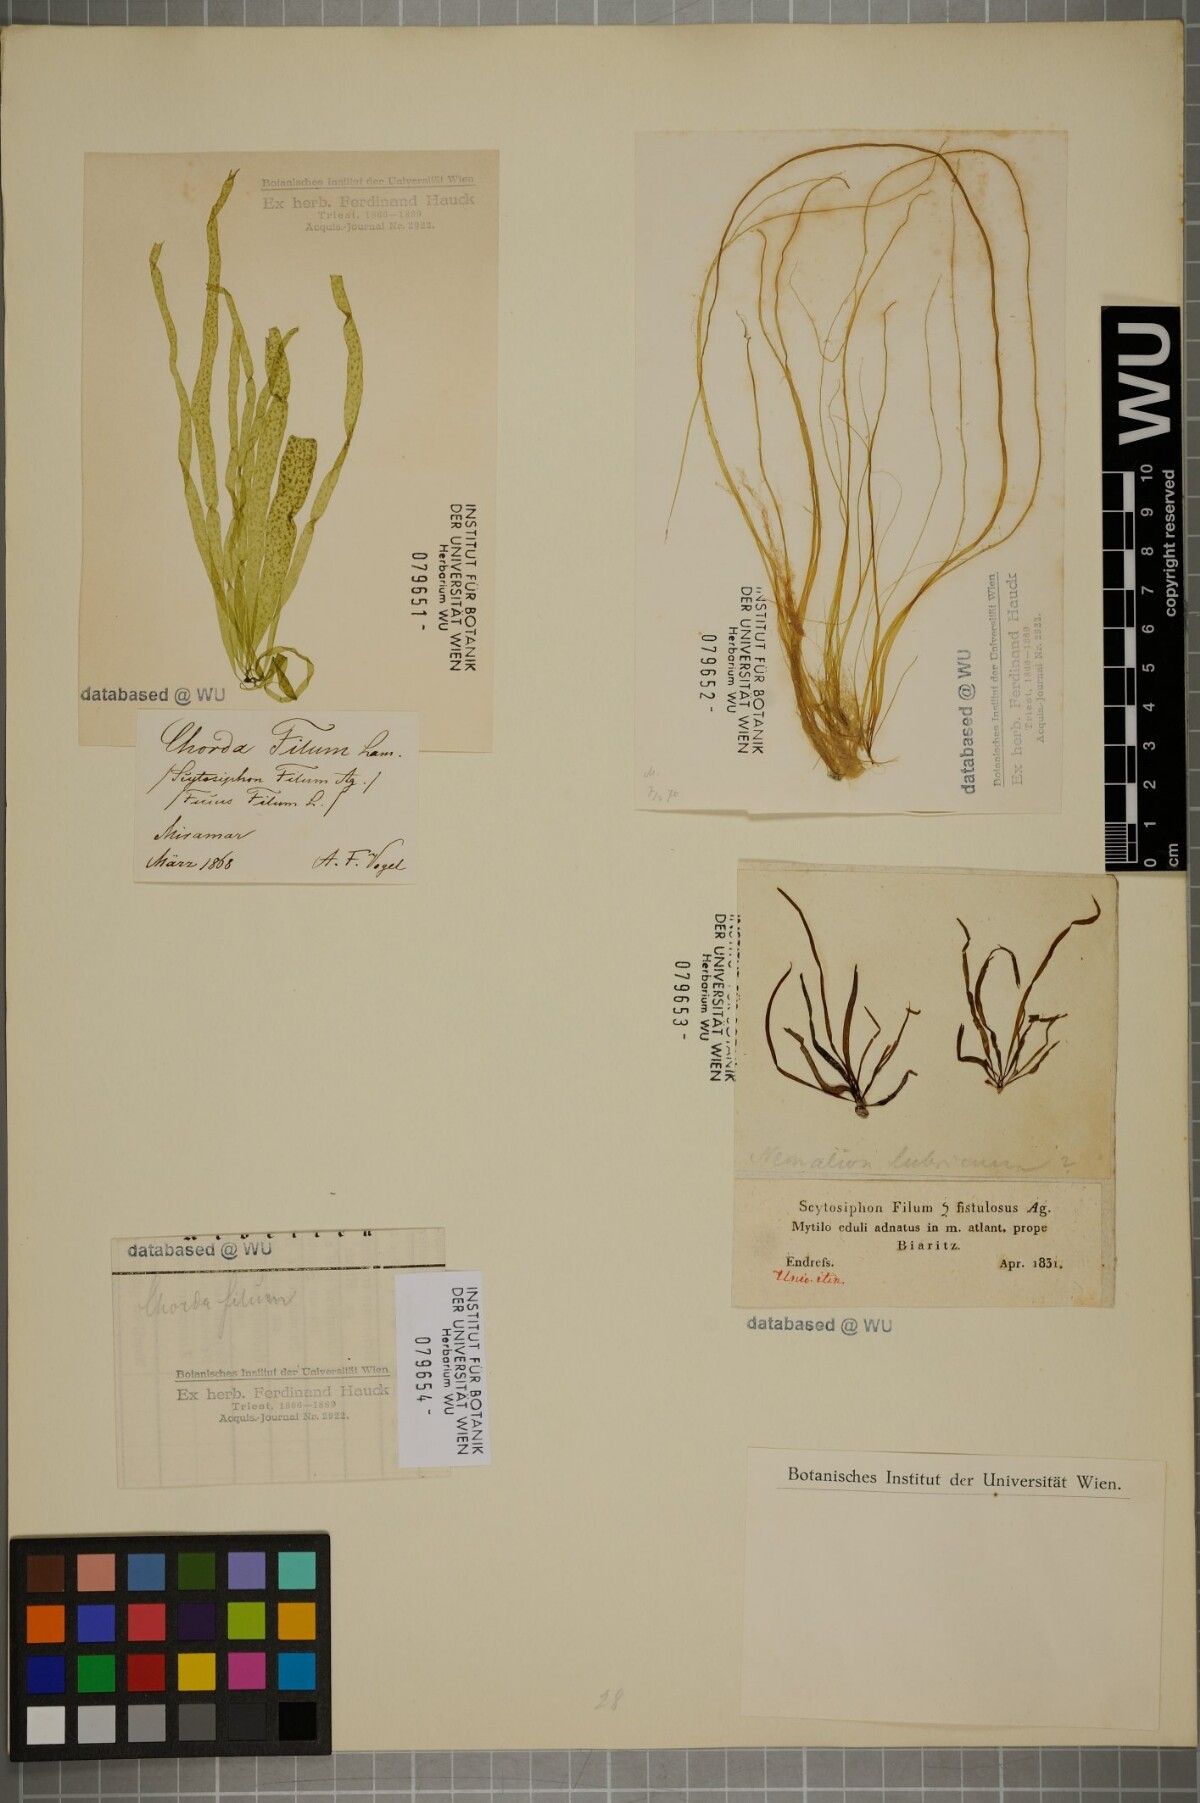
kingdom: Chromista
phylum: Ochrophyta
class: Phaeophyceae
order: Laminariales
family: Chordaceae
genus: Chorda
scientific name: Chorda filum
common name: Mermaid's tresses
